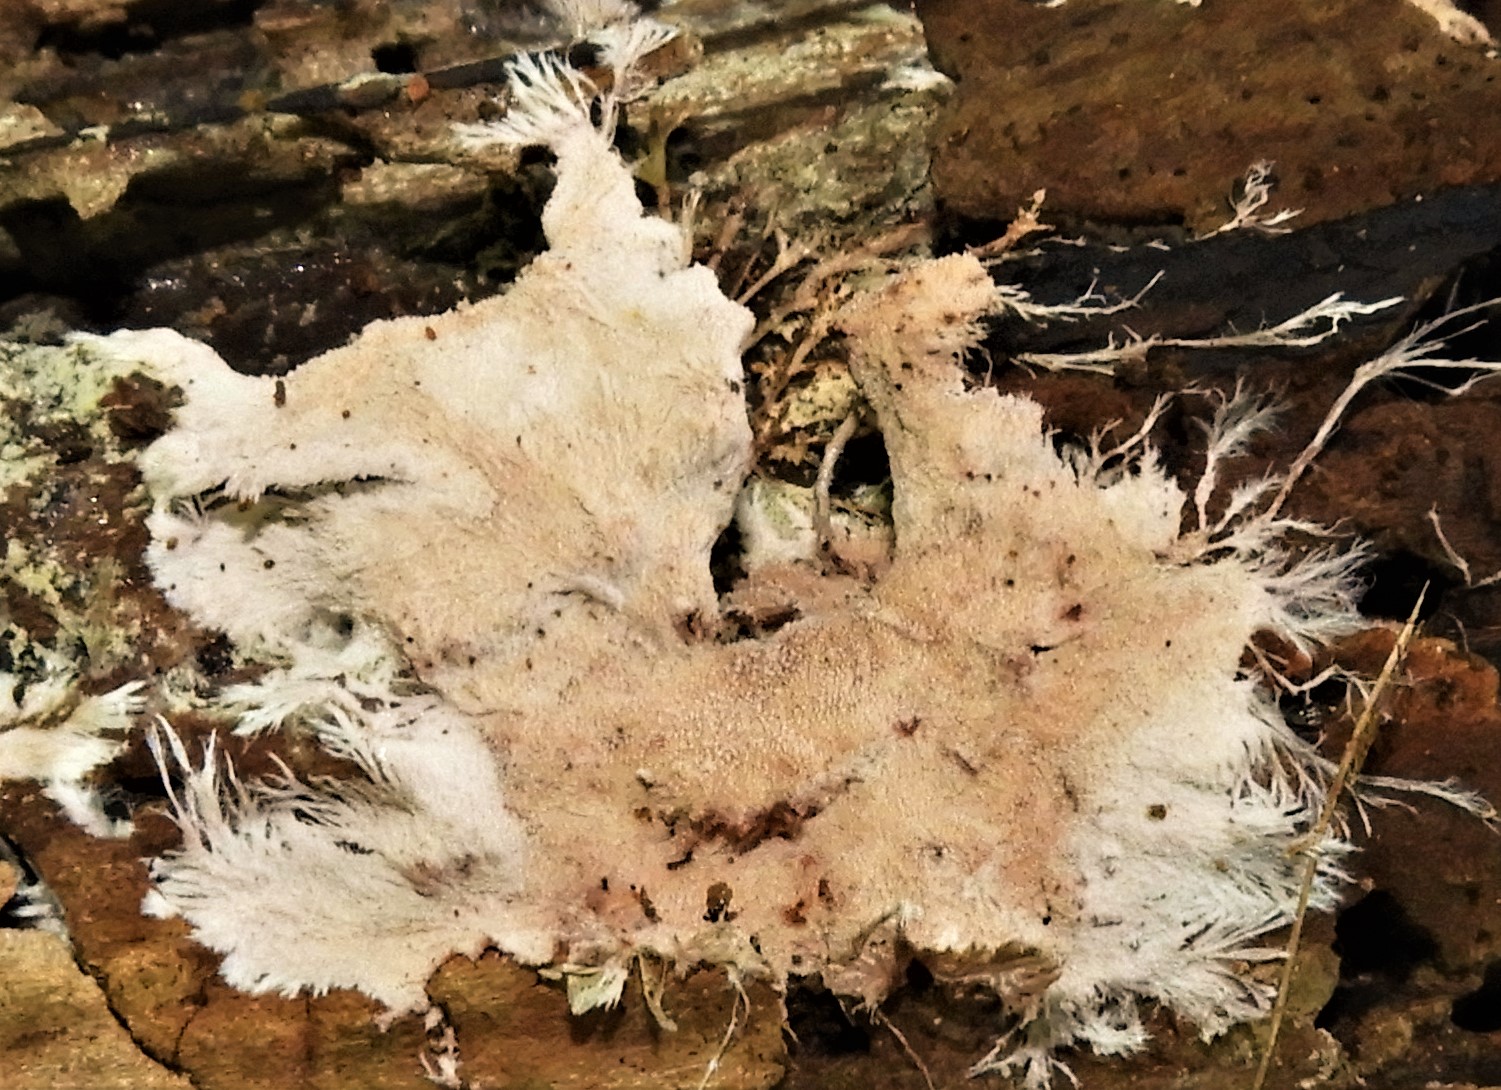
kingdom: Fungi
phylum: Basidiomycota
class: Agaricomycetes
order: Polyporales
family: Steccherinaceae
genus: Steccherinum
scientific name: Steccherinum fimbriatum
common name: trådet skønpig
